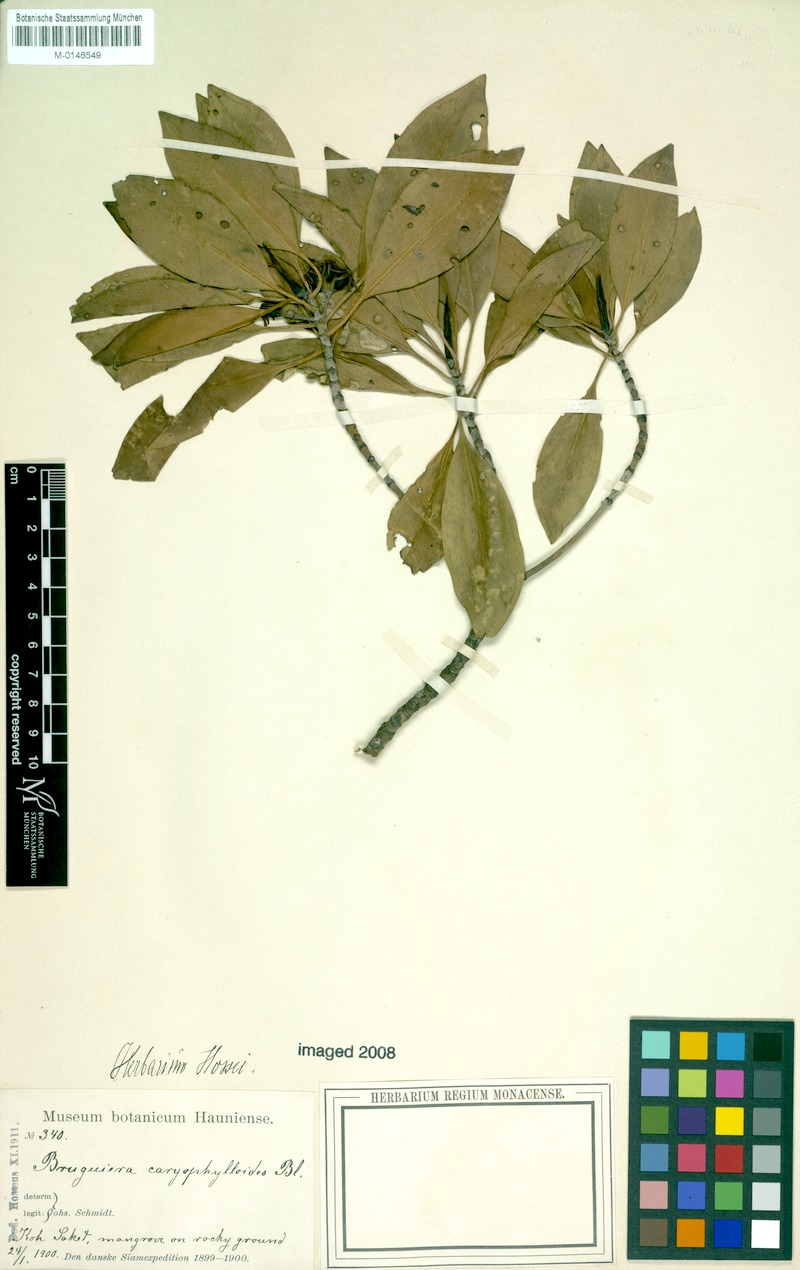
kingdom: Plantae
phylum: Tracheophyta
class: Magnoliopsida
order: Malpighiales
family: Rhizophoraceae
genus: Bruguiera
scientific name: Bruguiera cylindrica
